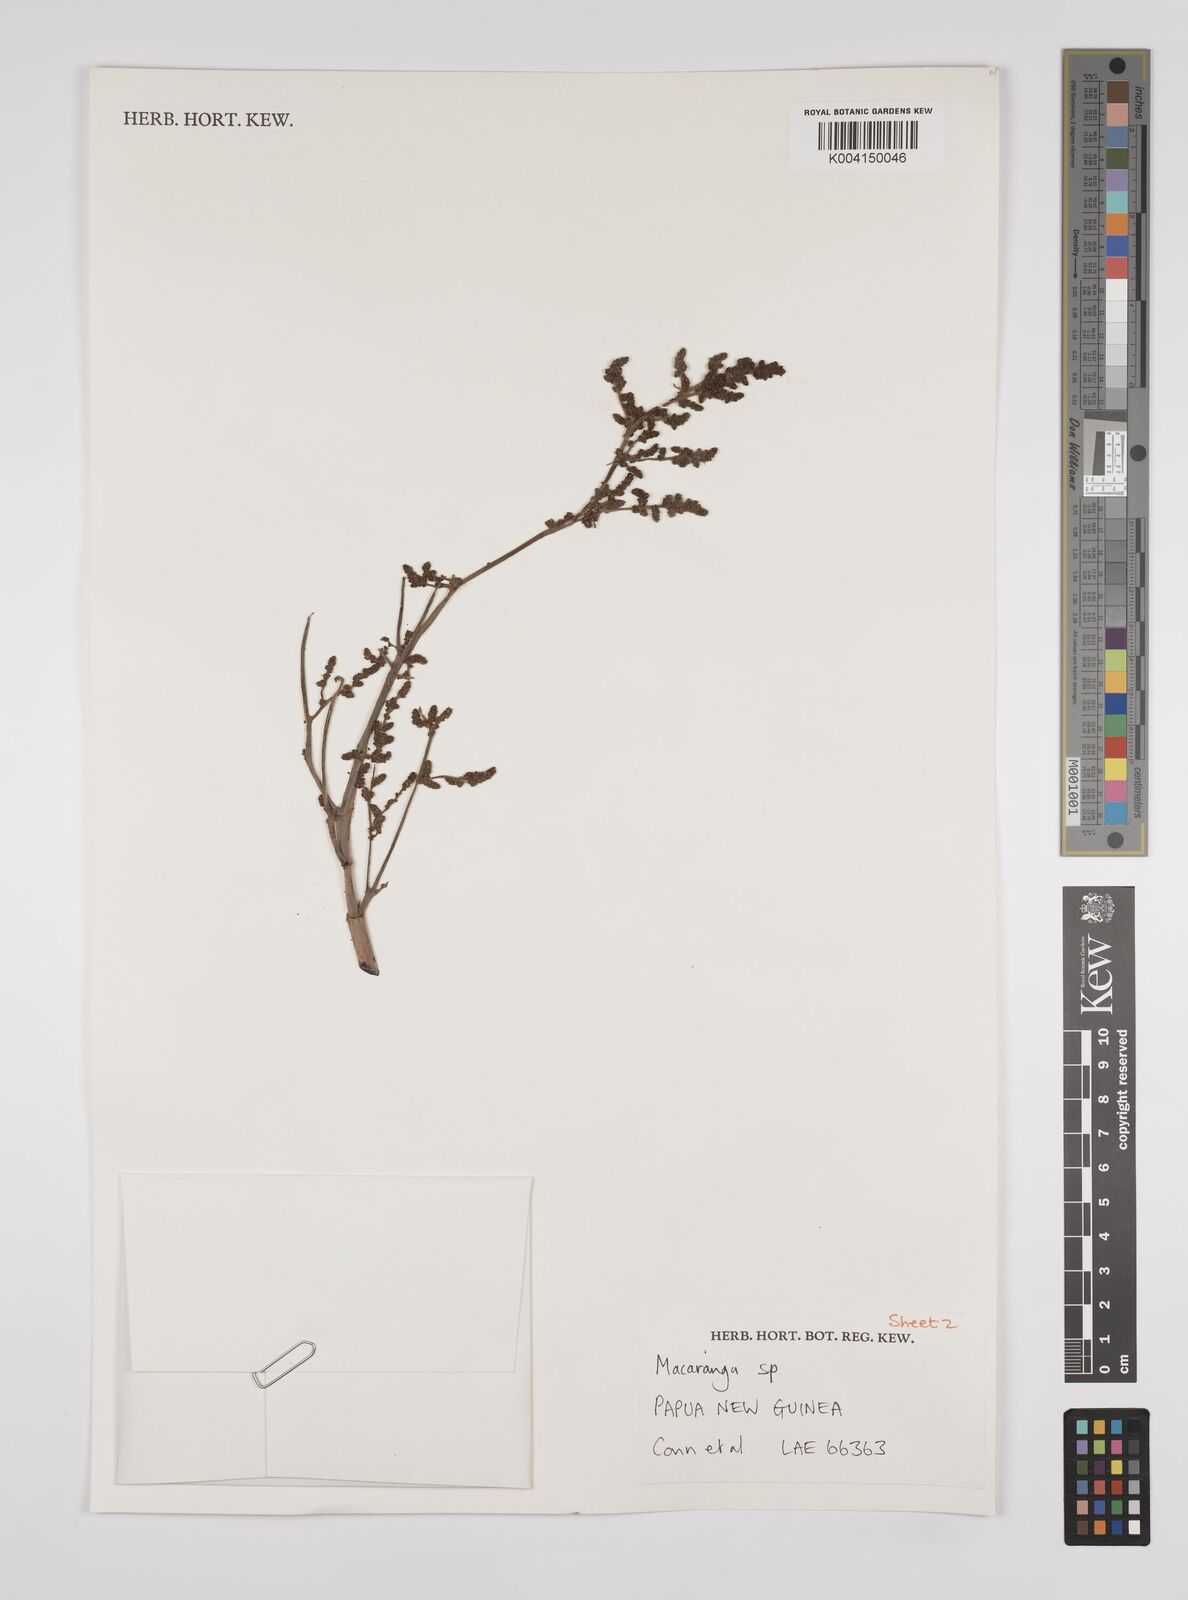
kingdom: Plantae
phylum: Tracheophyta
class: Magnoliopsida
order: Malpighiales
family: Euphorbiaceae
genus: Macaranga
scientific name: Macaranga
